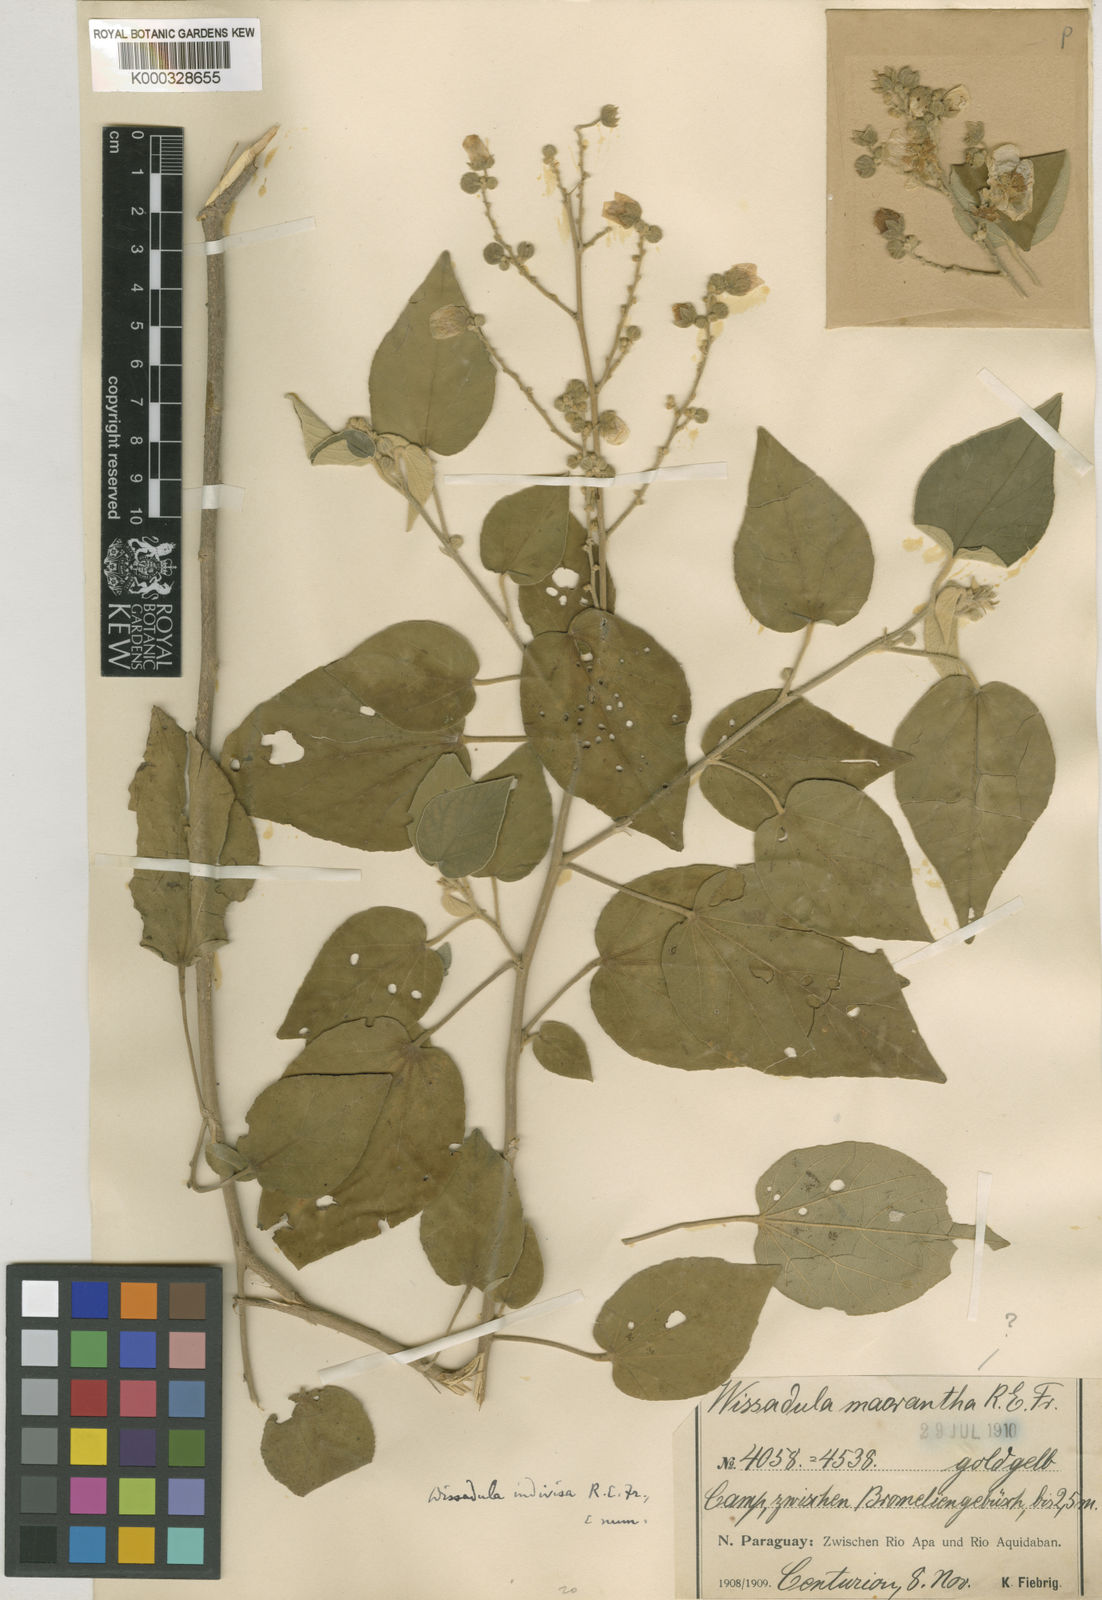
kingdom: Plantae
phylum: Tracheophyta
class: Magnoliopsida
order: Malvales
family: Malvaceae
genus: Wissadula
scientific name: Wissadula indivisa
